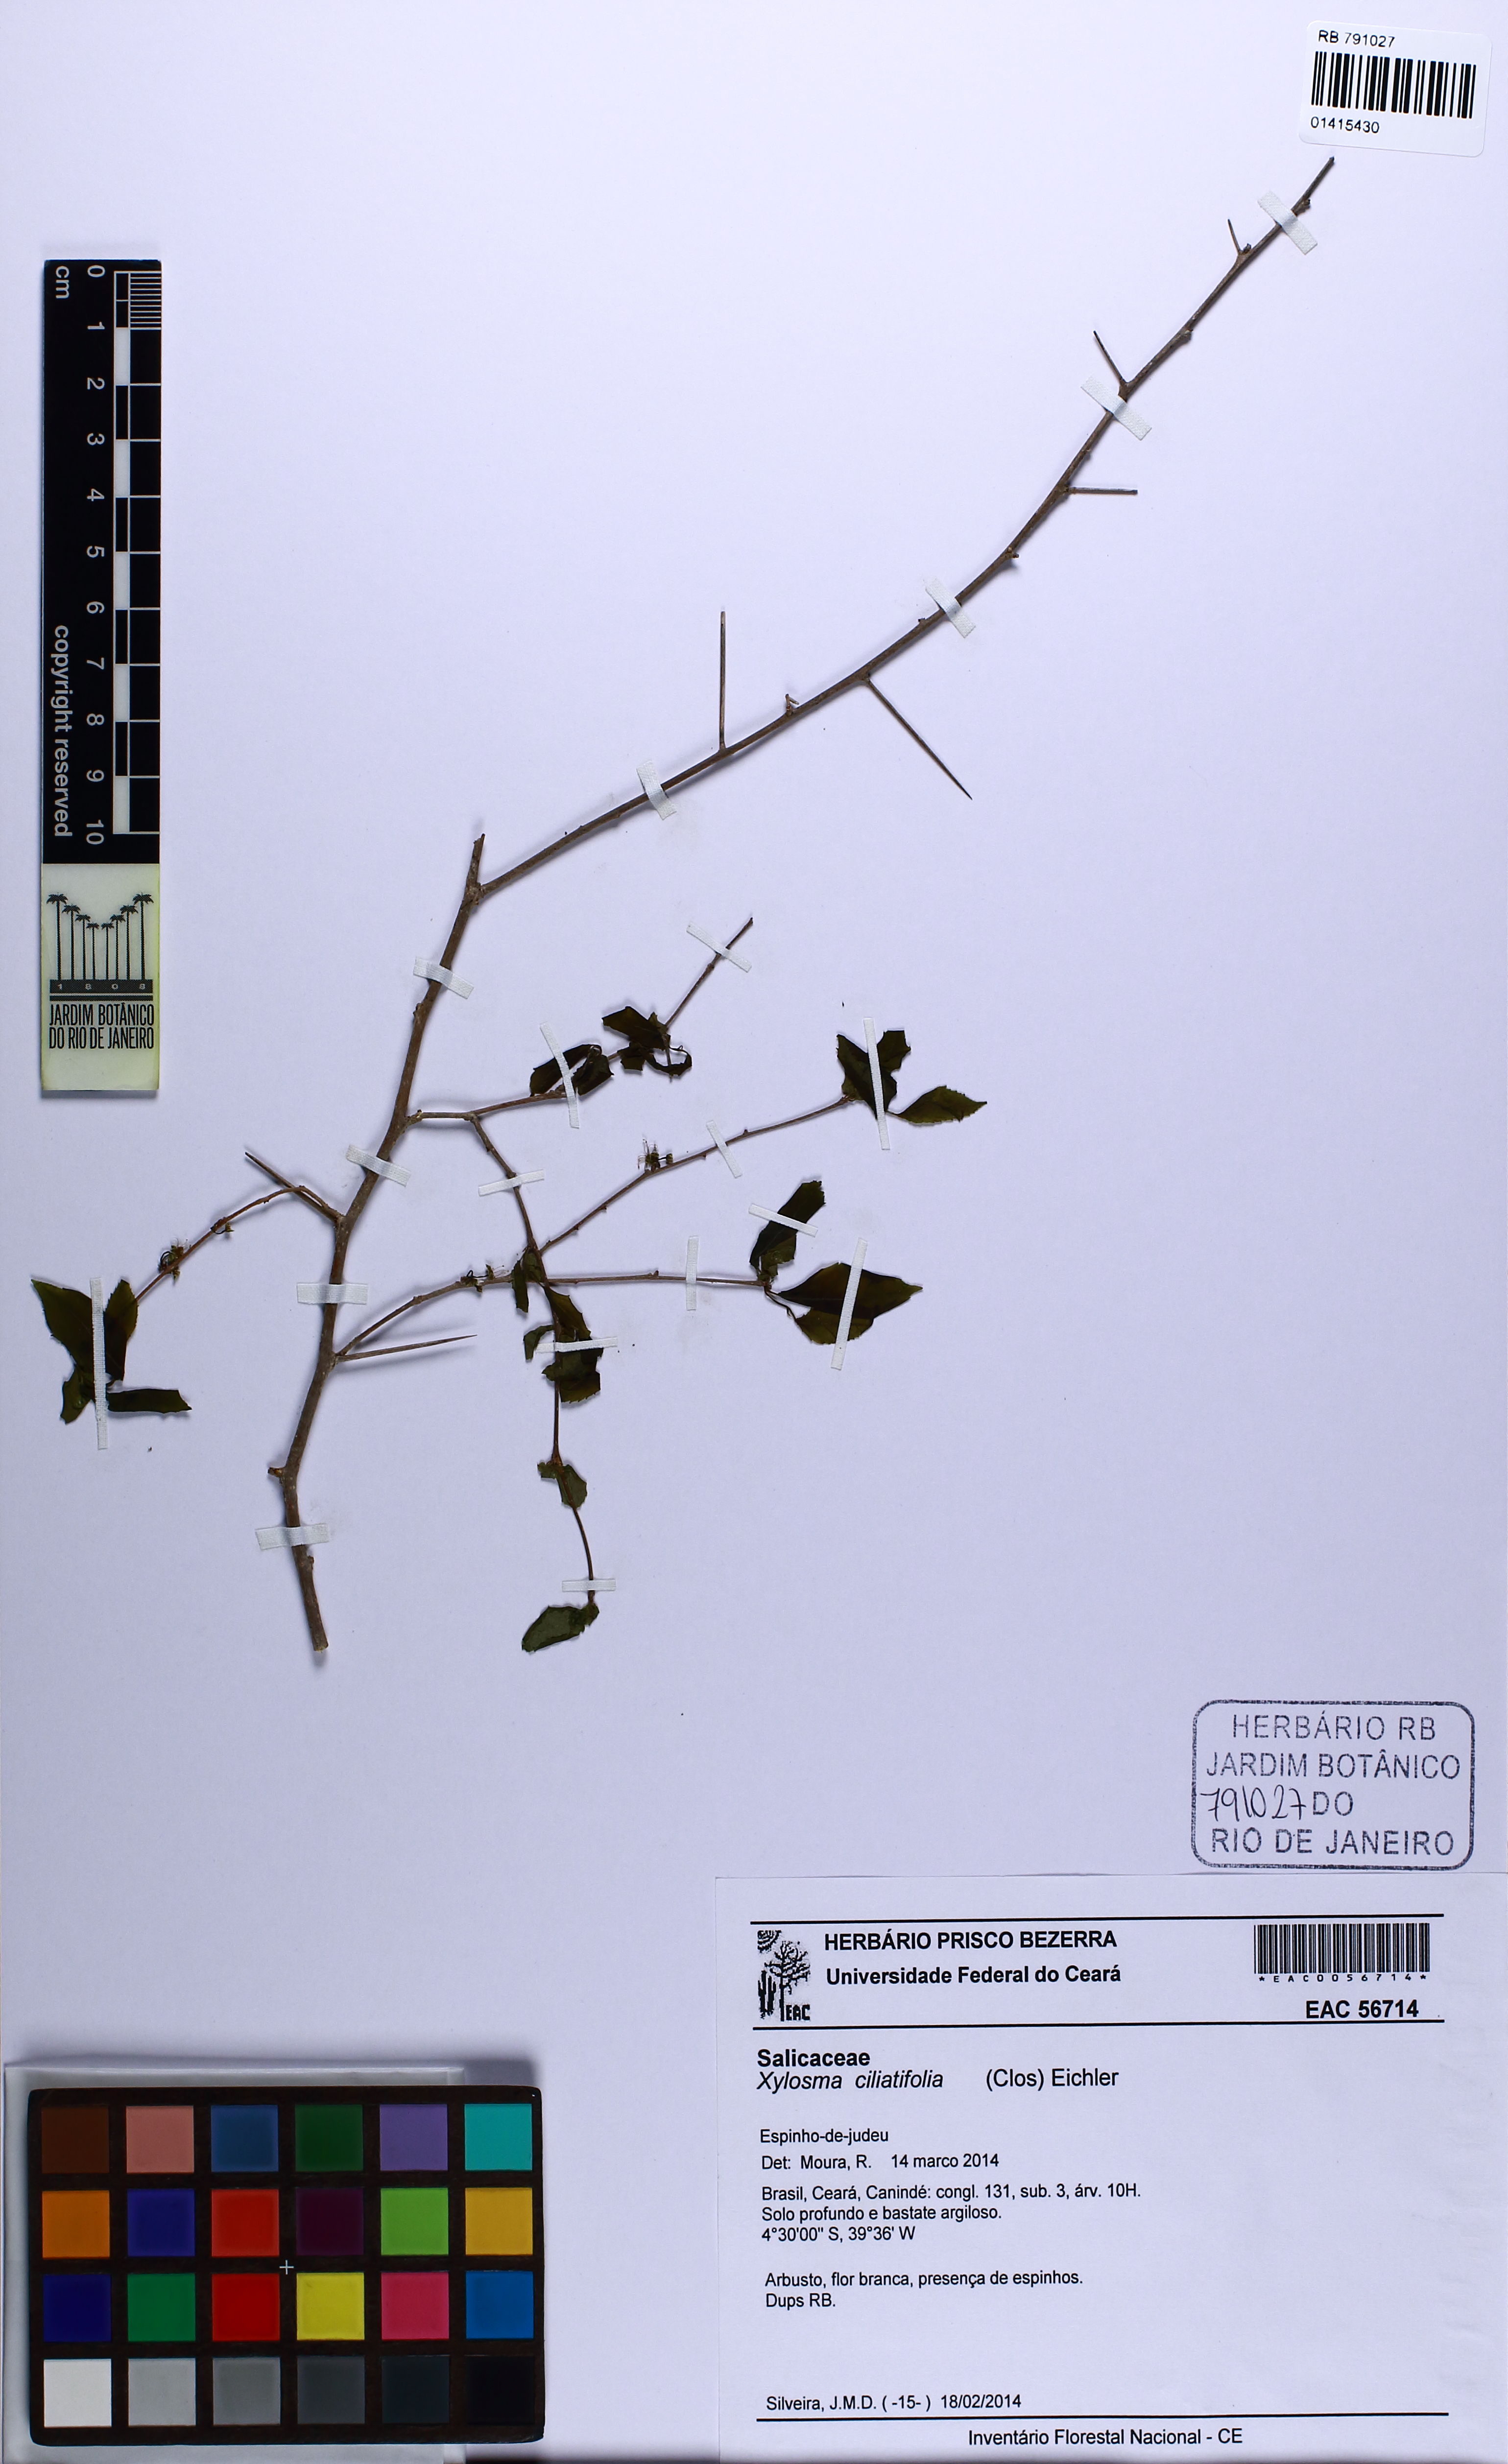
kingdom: Plantae
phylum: Tracheophyta
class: Magnoliopsida
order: Malpighiales
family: Salicaceae
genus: Xylosma
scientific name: Xylosma ciliatifolia
